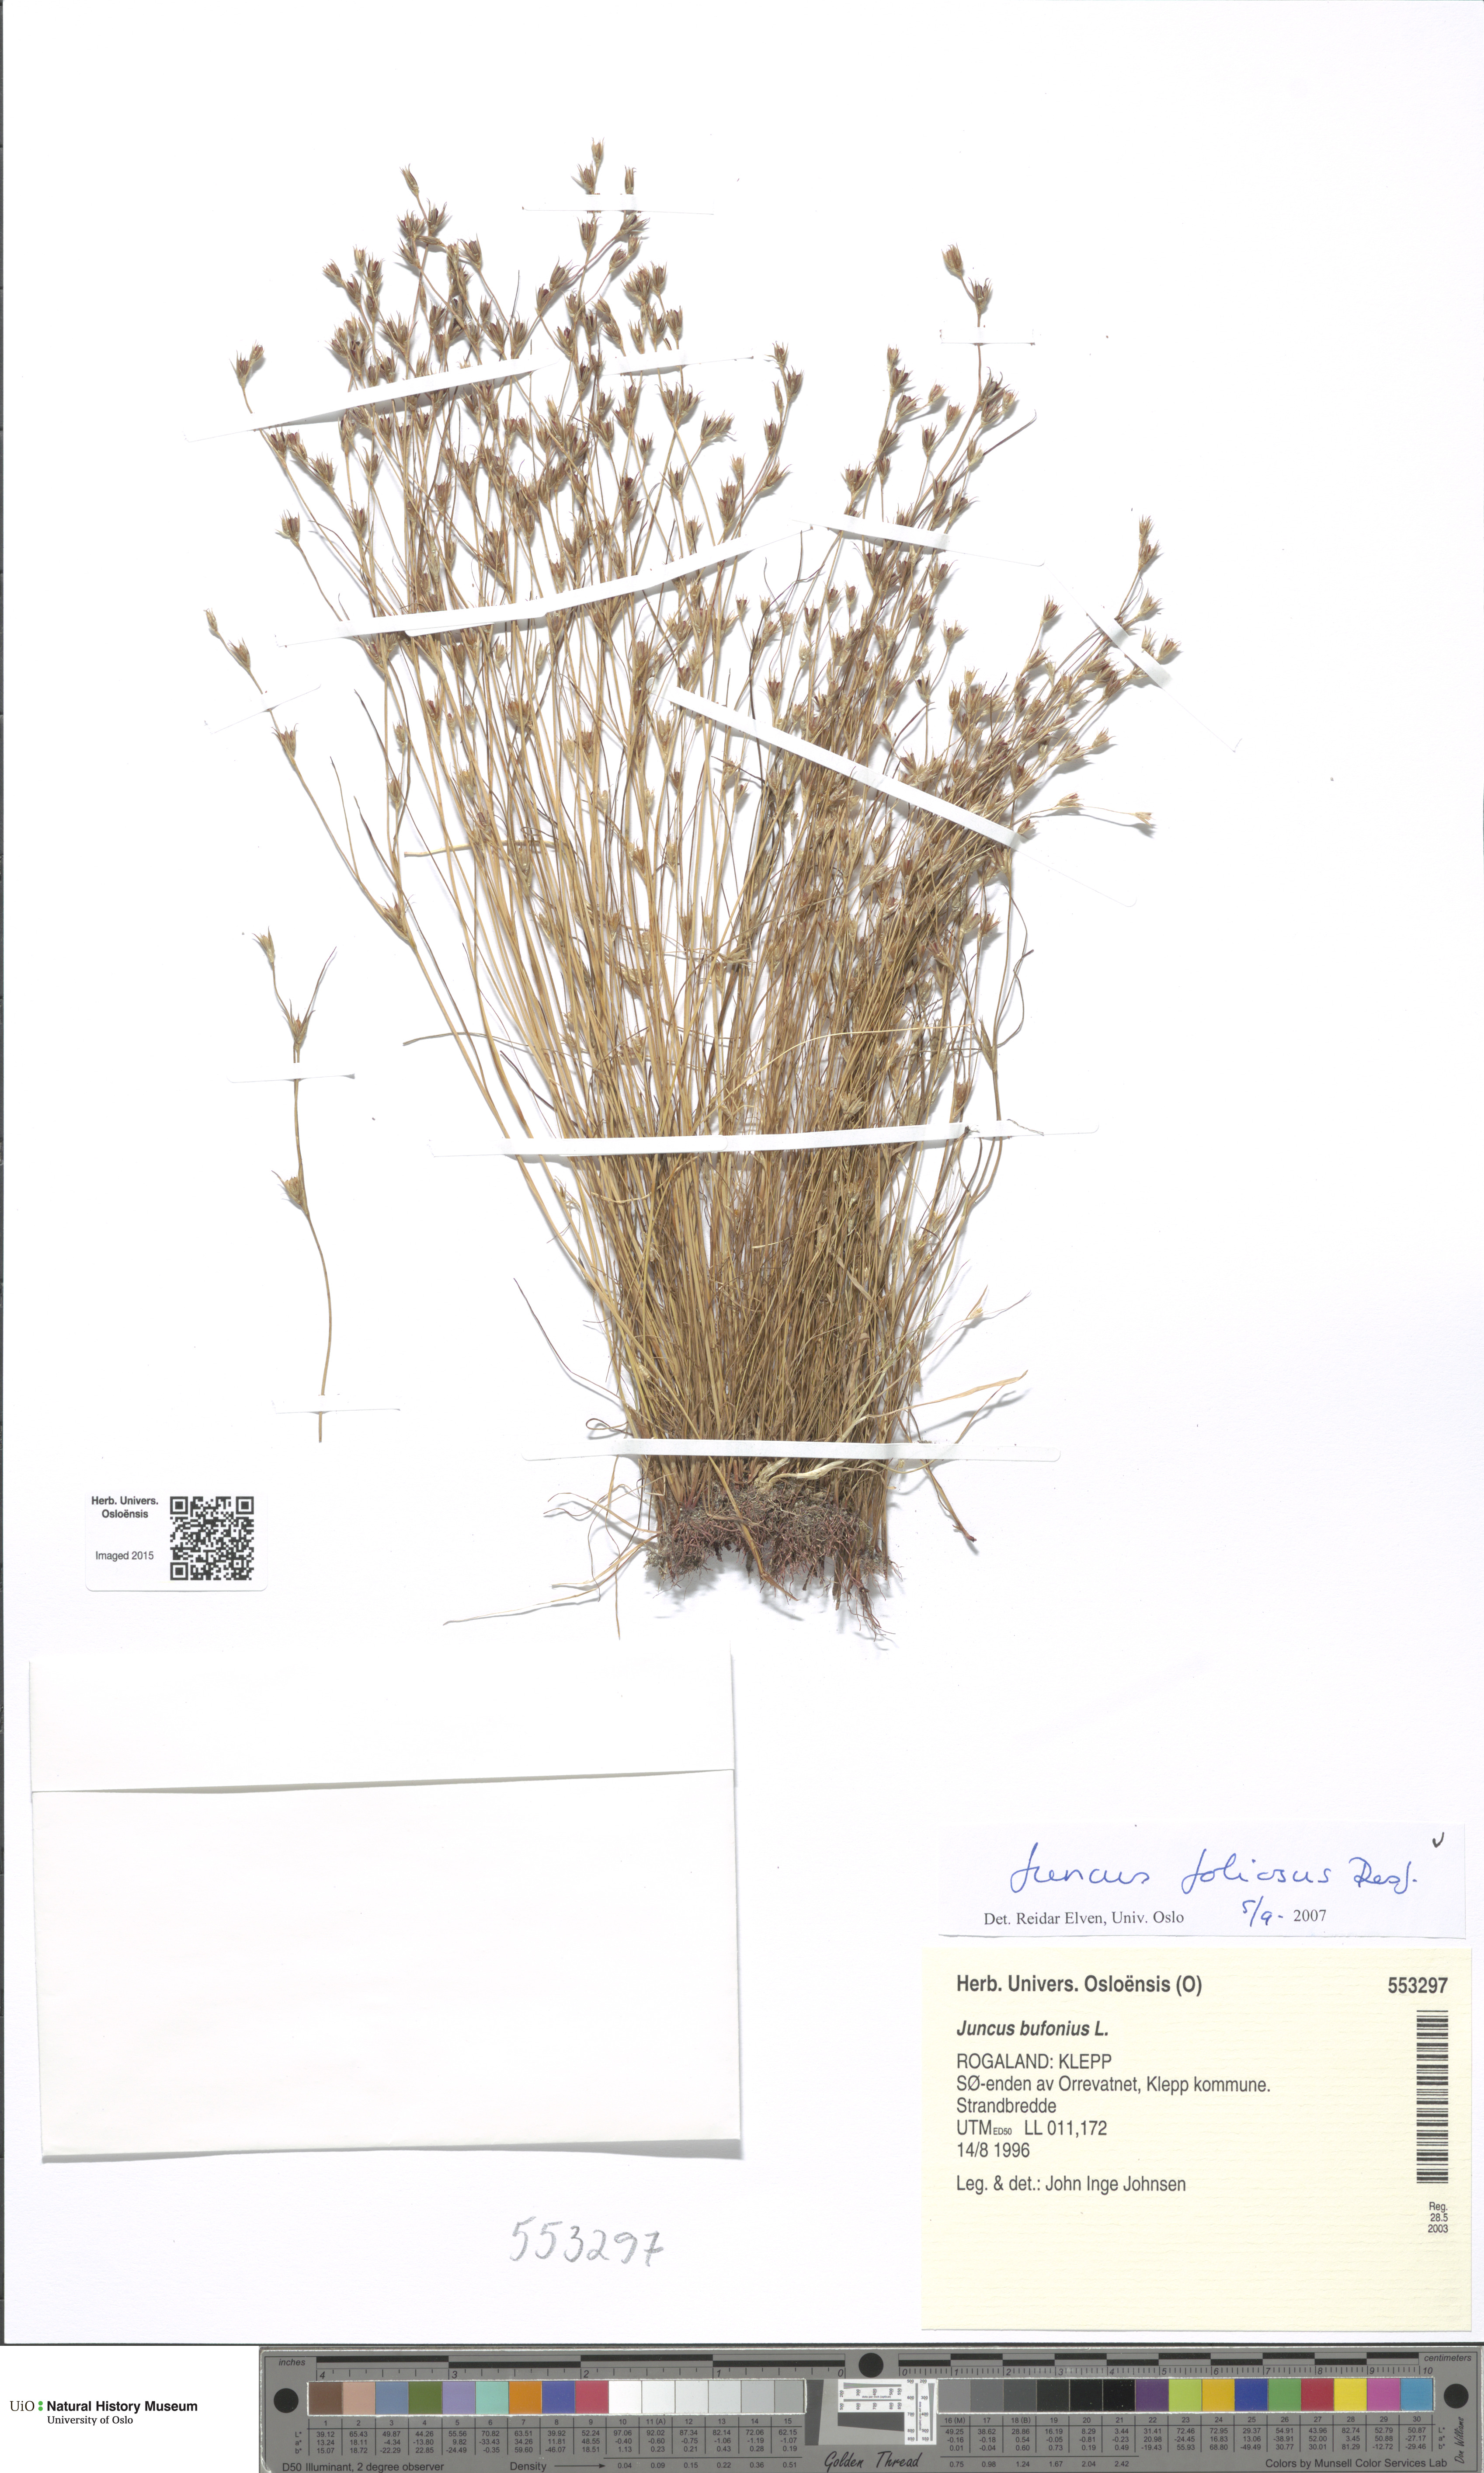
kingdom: Plantae
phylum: Tracheophyta
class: Liliopsida
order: Poales
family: Juncaceae
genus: Juncus
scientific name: Juncus foliosus
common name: Leafy rush
